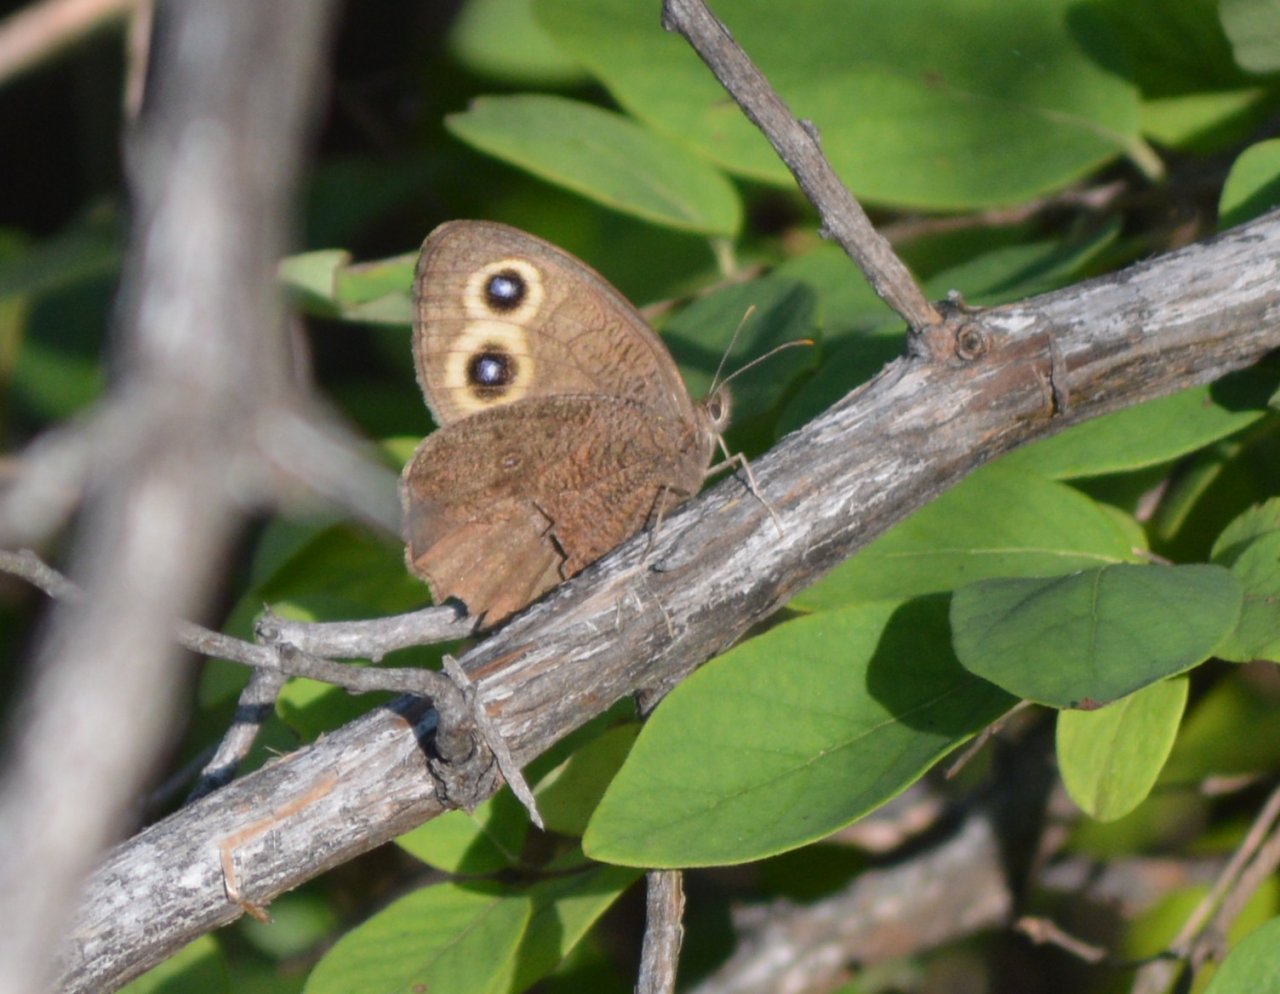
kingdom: Animalia
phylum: Arthropoda
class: Insecta
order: Lepidoptera
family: Nymphalidae
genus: Cercyonis
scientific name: Cercyonis pegala
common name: Common Wood-Nymph
